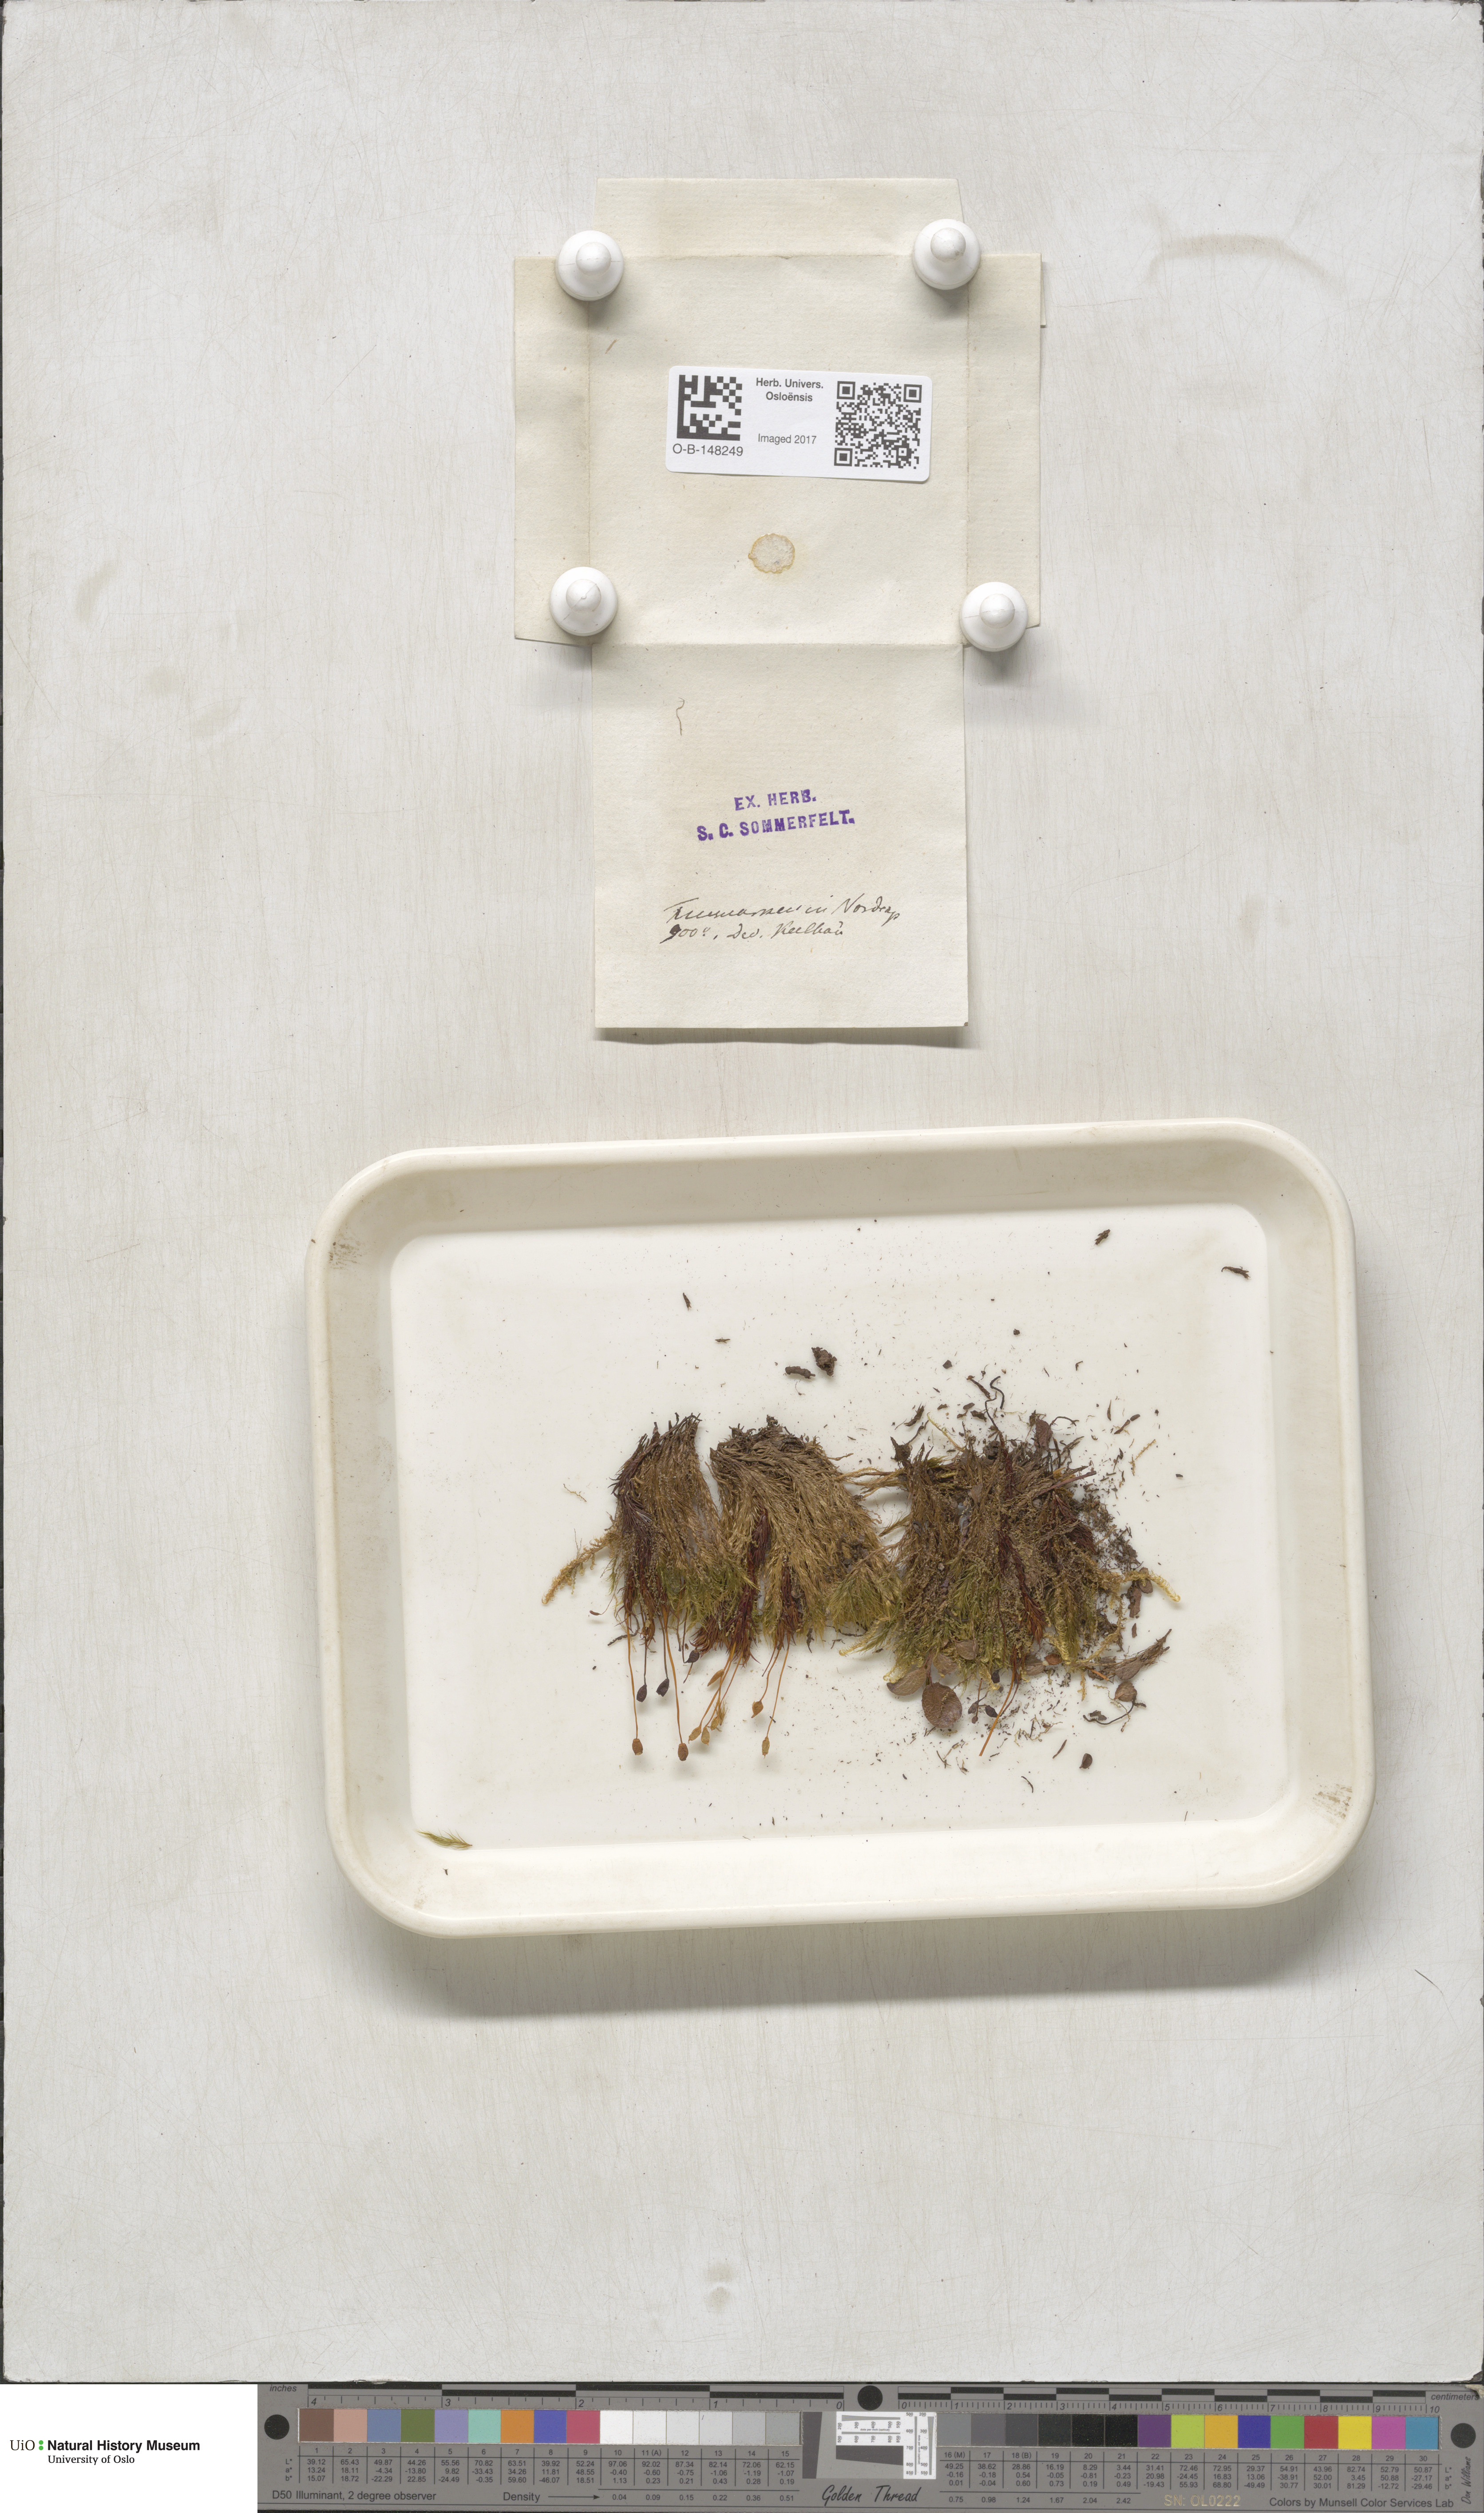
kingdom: Plantae
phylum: Bryophyta
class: Polytrichopsida
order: Polytrichales
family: Polytrichaceae
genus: Polytrichastrum
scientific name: Polytrichastrum alpinum
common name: Alpine haircap
